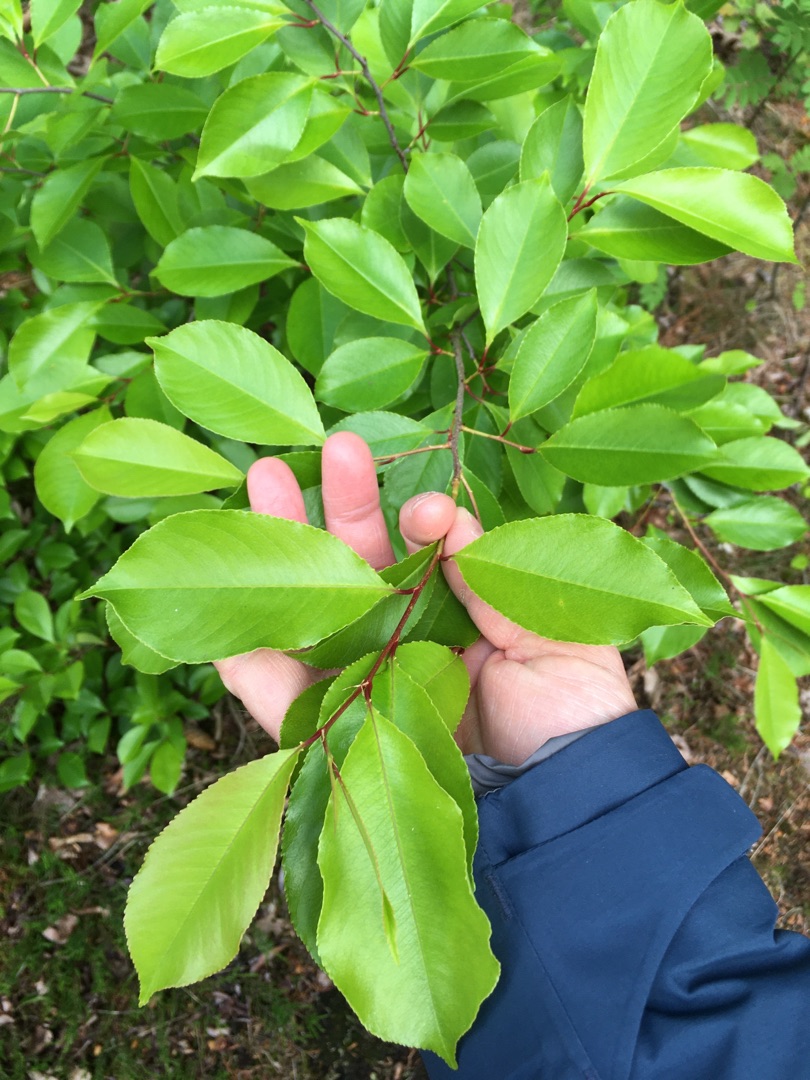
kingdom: Plantae
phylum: Tracheophyta
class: Magnoliopsida
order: Rosales
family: Rosaceae
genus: Prunus
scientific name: Prunus serotina
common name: Glansbladet hæg
